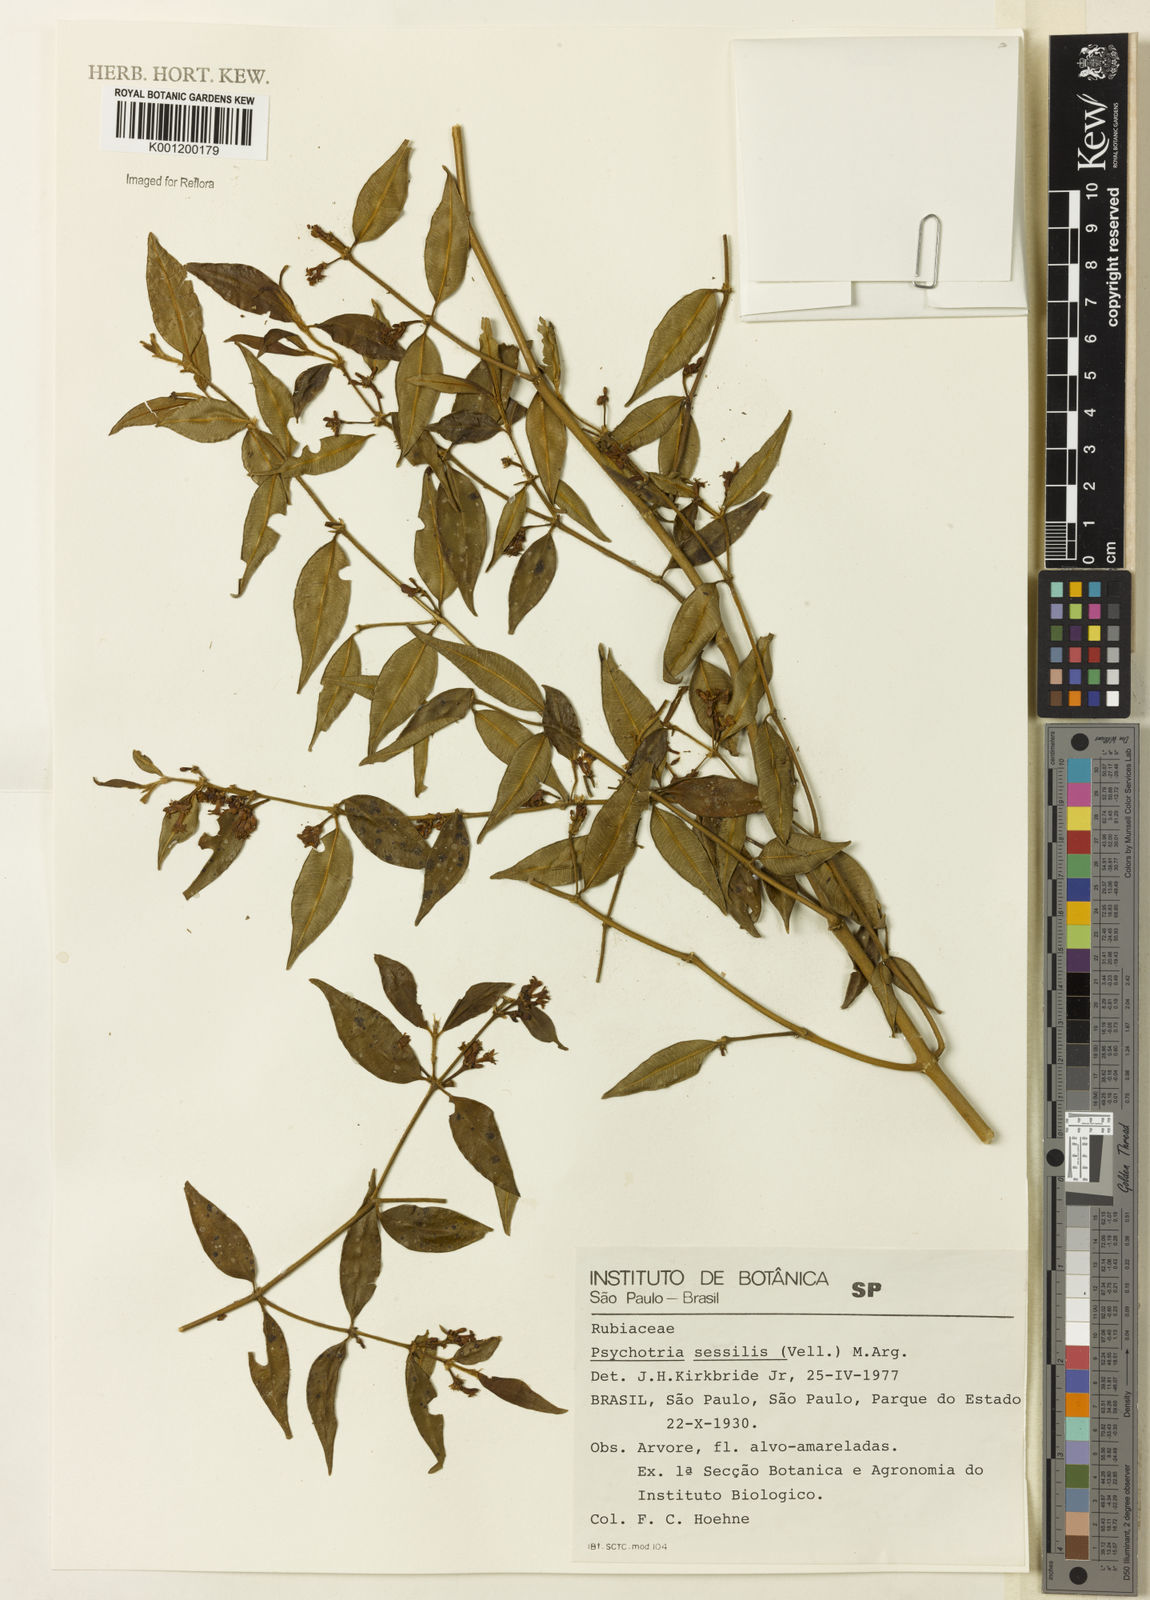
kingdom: Plantae
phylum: Tracheophyta
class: Magnoliopsida
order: Gentianales
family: Rubiaceae
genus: Rudgea
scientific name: Rudgea sessilis
